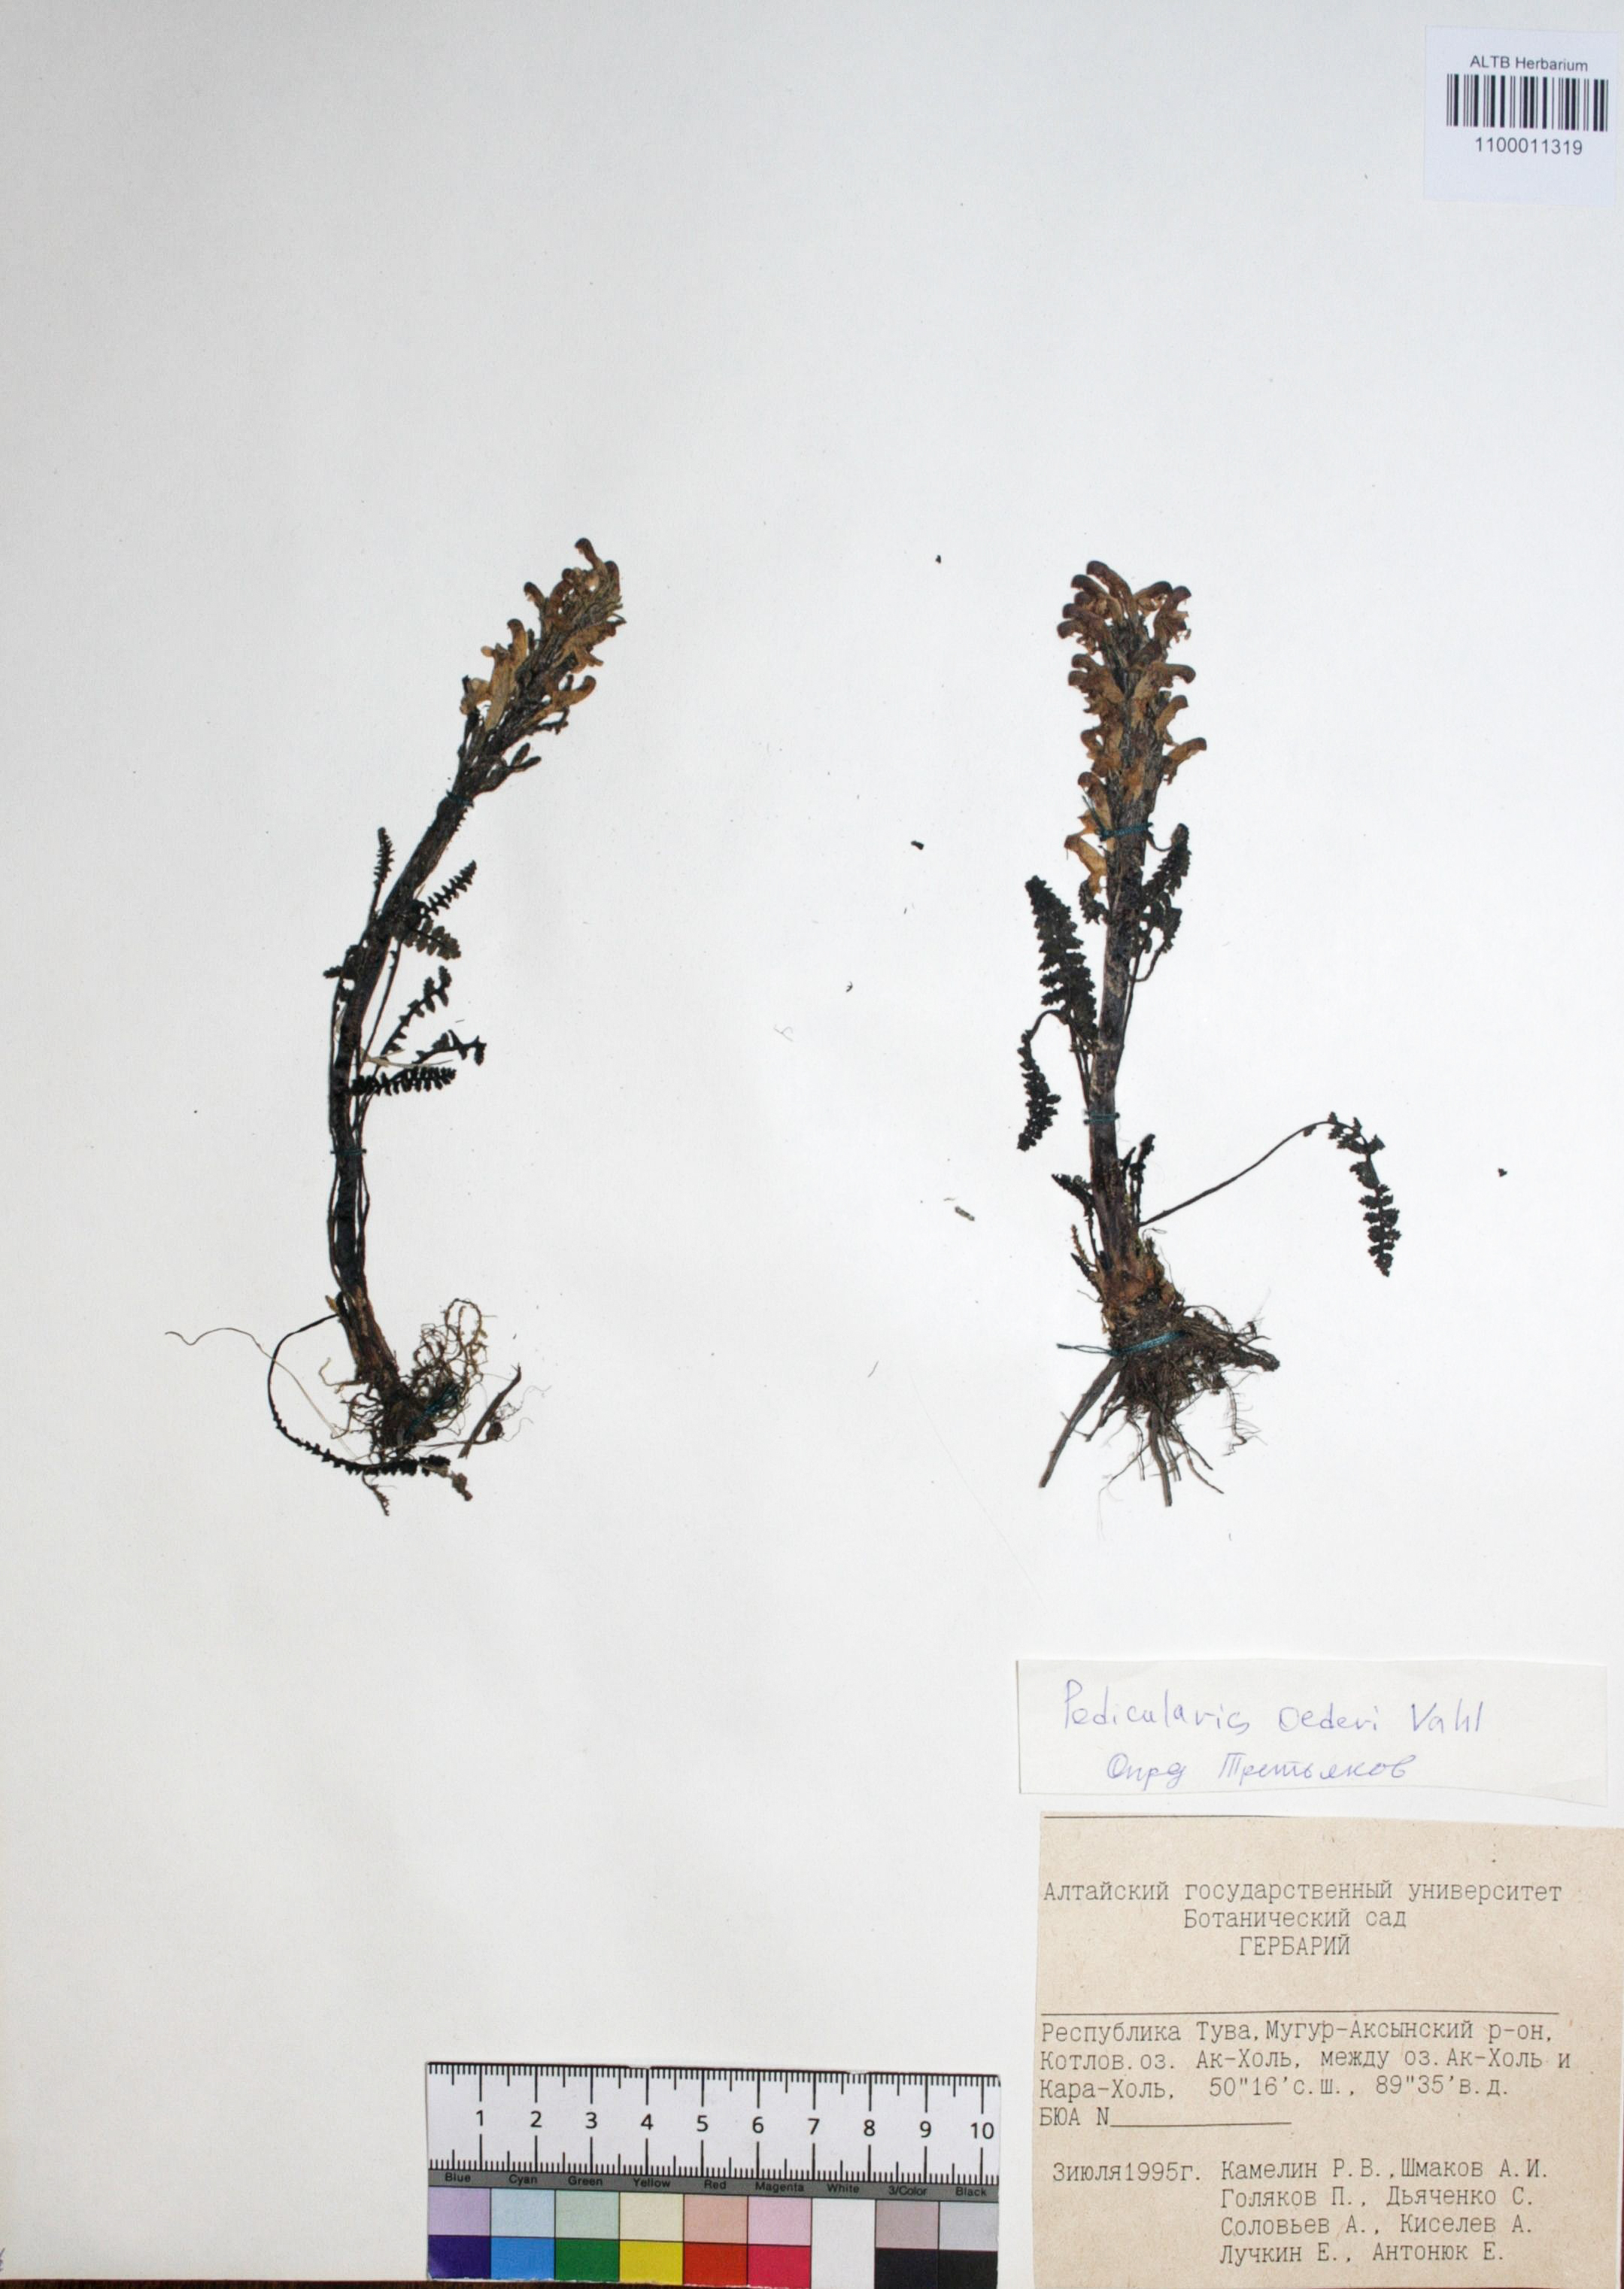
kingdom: Plantae
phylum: Tracheophyta
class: Magnoliopsida
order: Caryophyllales
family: Caryophyllaceae
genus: Silene
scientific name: Silene graminifolia
